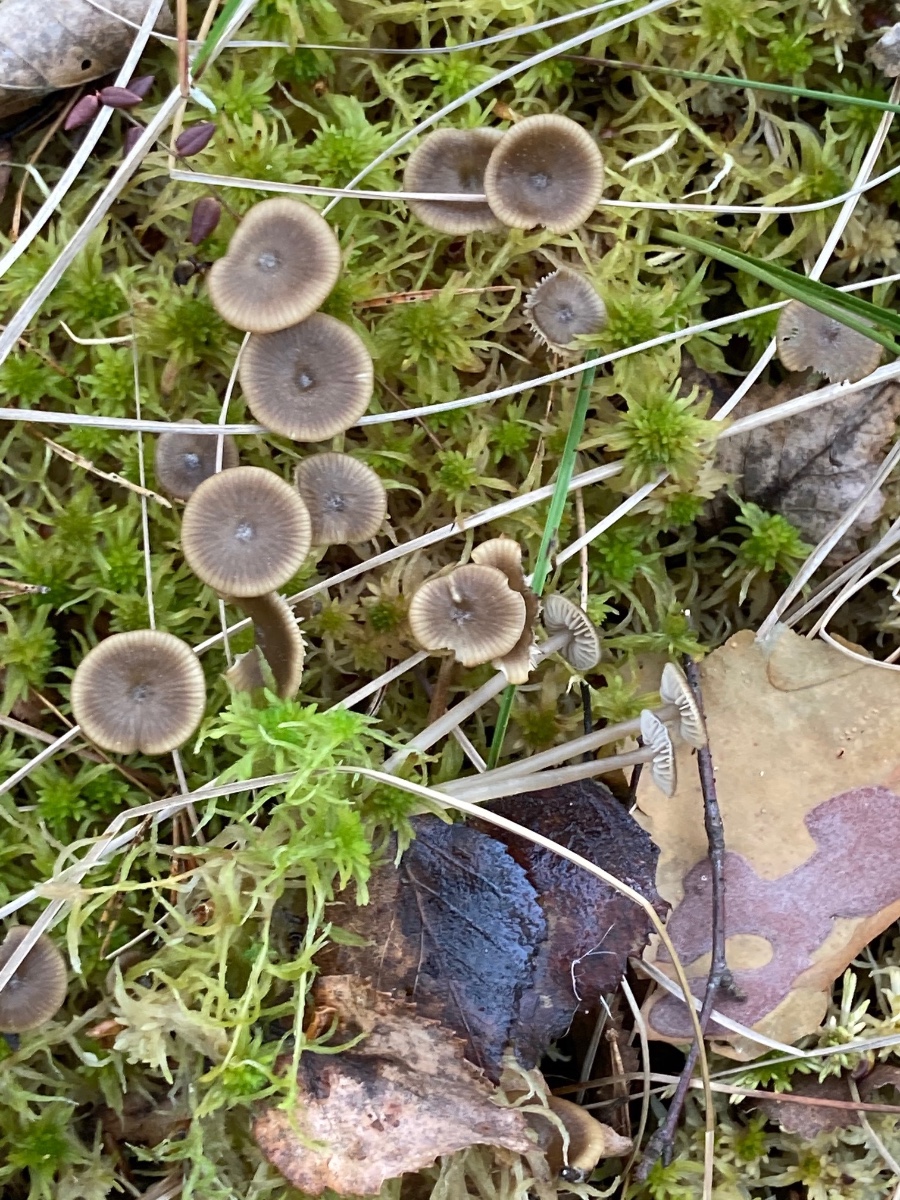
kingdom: Fungi
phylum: Basidiomycota
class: Agaricomycetes
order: Agaricales
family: Lyophyllaceae
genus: Sphagnurus
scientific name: Sphagnurus paluster
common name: tørvemos-gråblad
